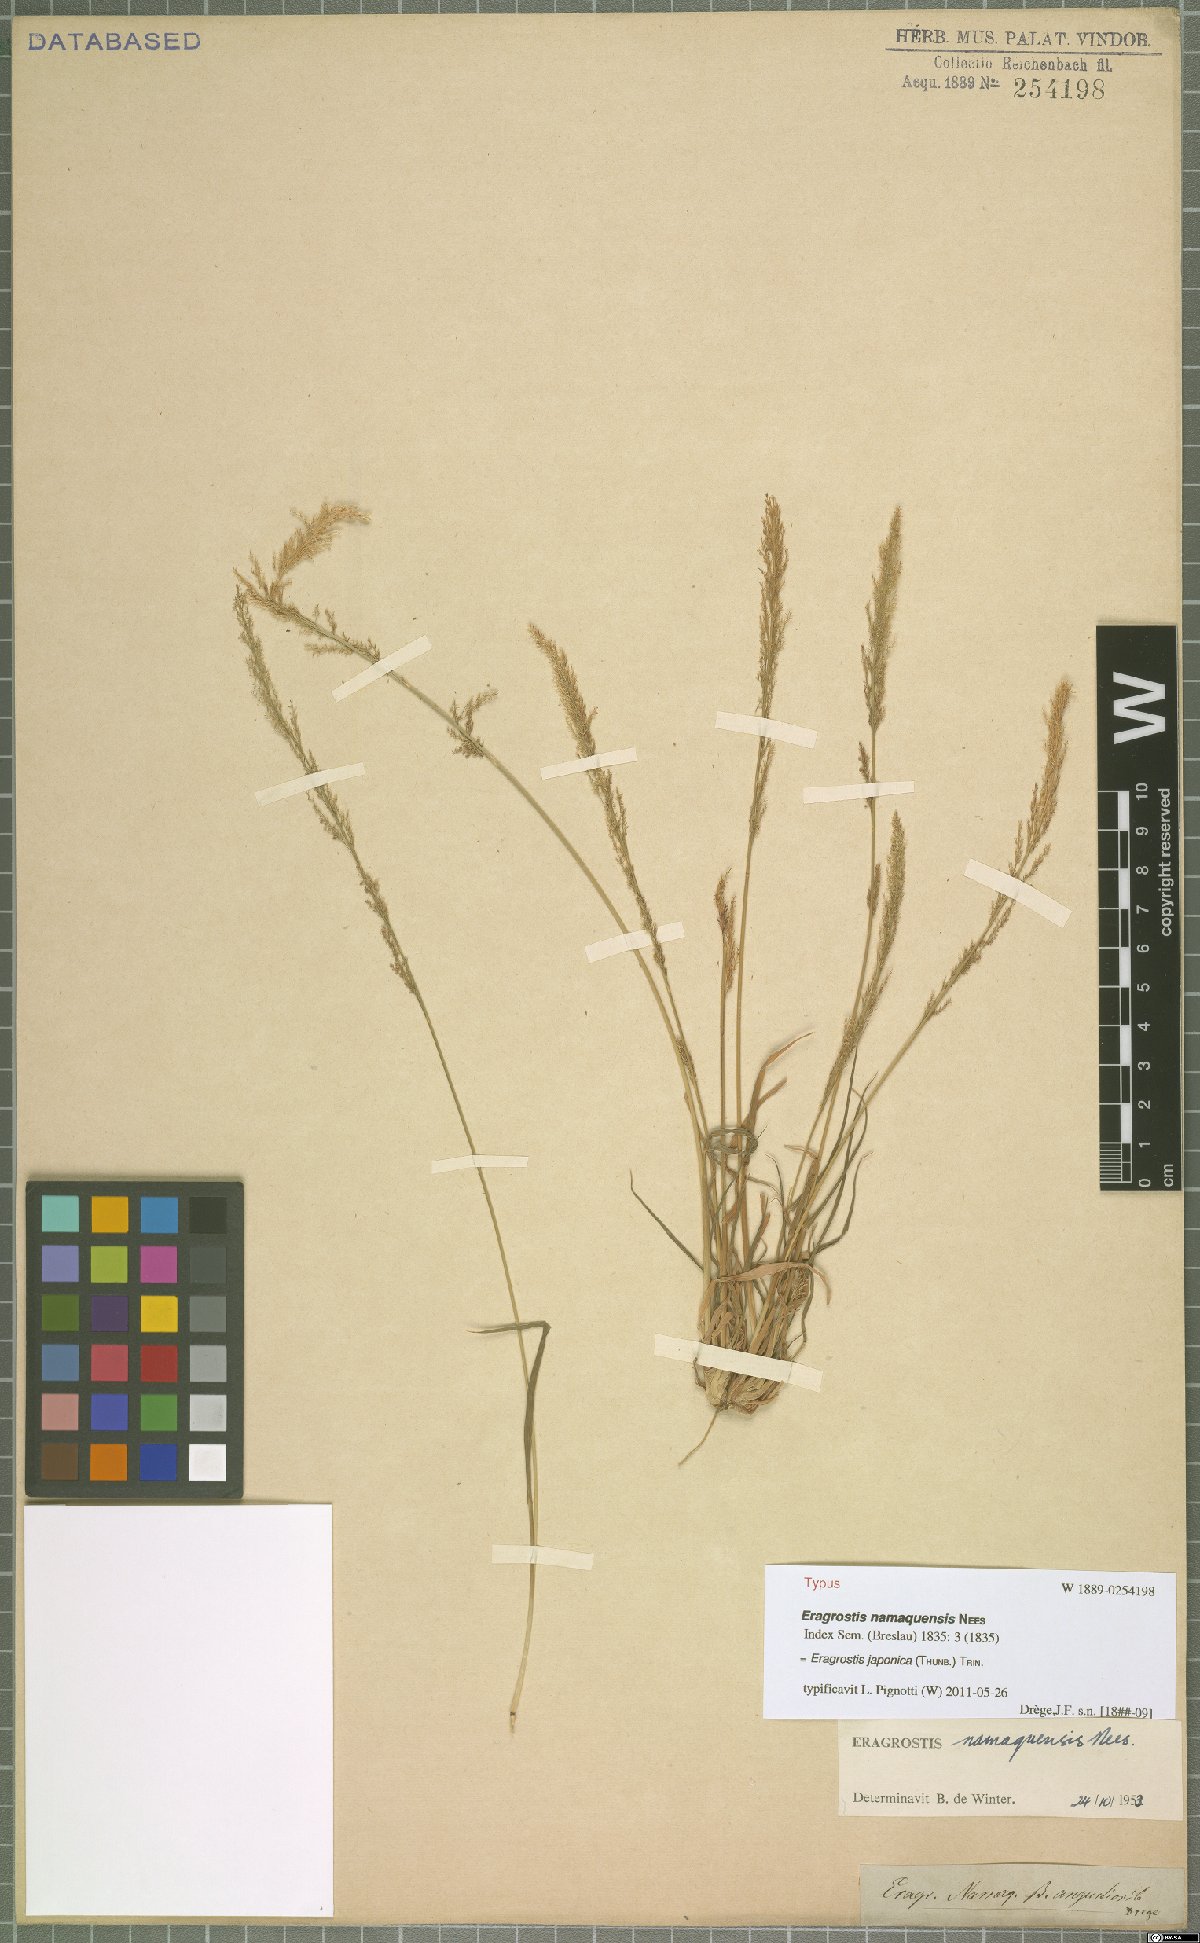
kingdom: Plantae
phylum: Tracheophyta
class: Liliopsida
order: Poales
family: Poaceae
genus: Eragrostis
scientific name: Eragrostis japonica
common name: Pond lovegrass
